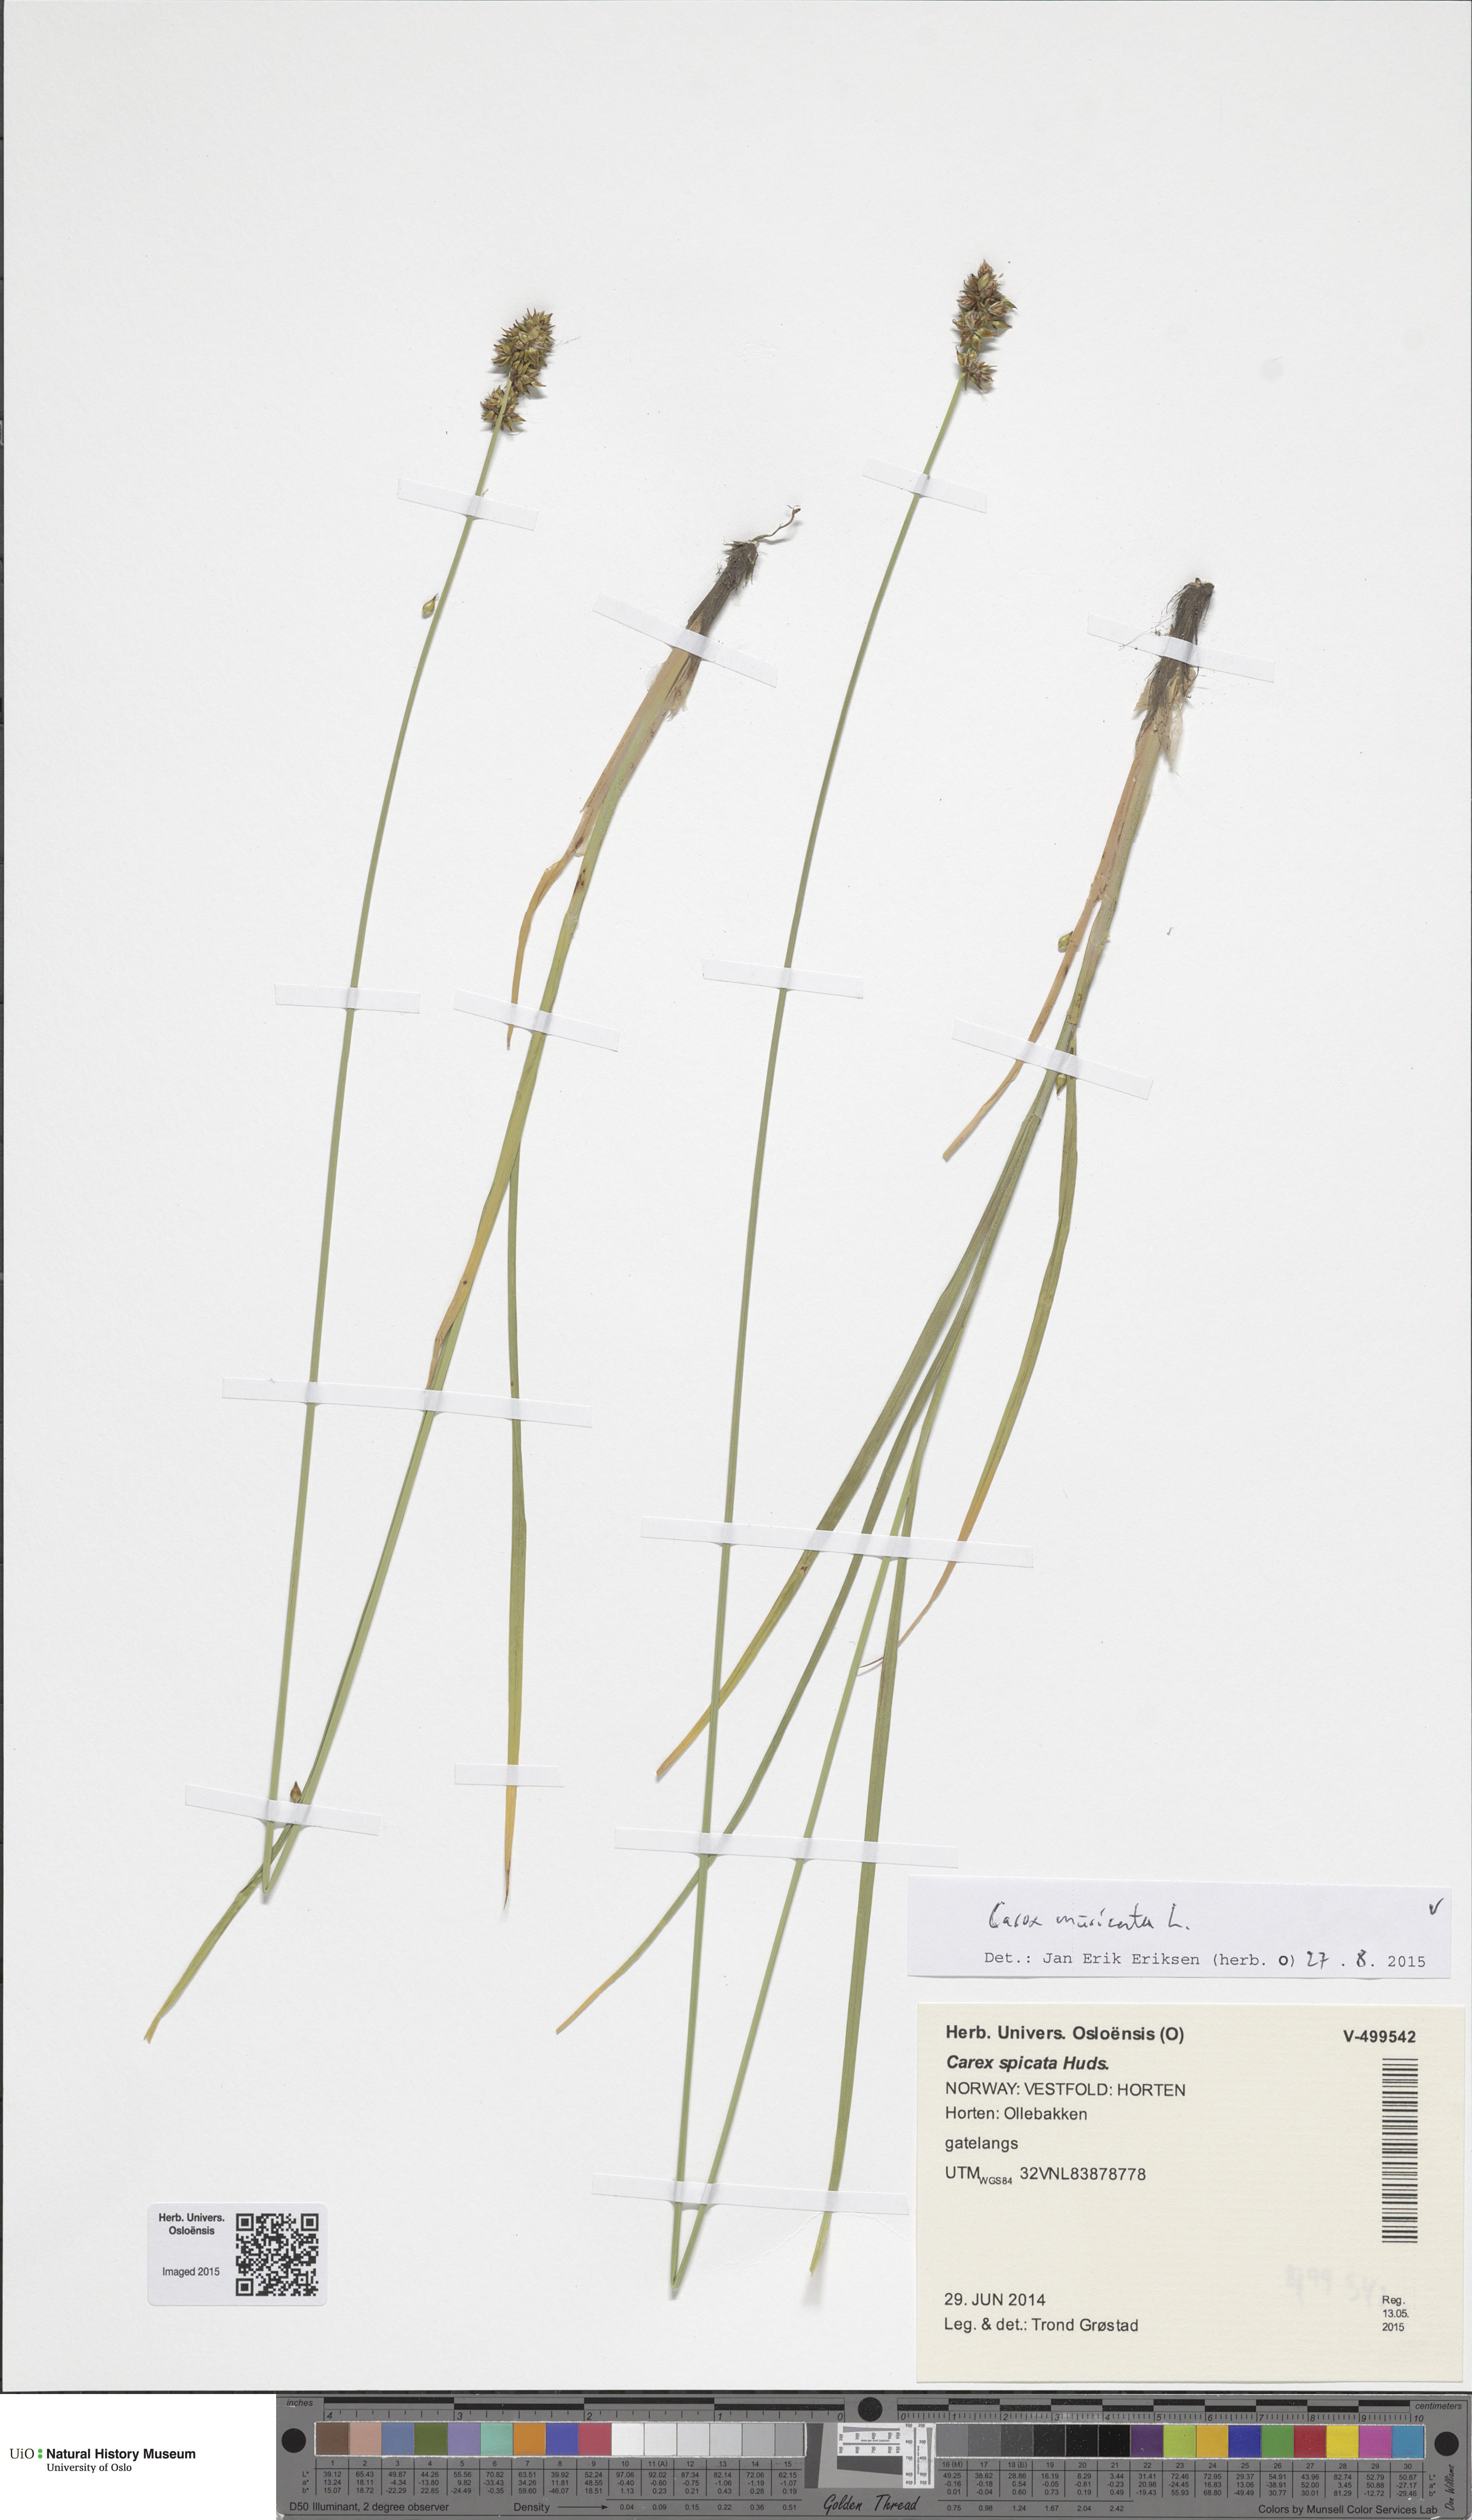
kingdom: Plantae
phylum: Tracheophyta
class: Liliopsida
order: Poales
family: Cyperaceae
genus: Carex
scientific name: Carex muricata
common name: Rough sedge
